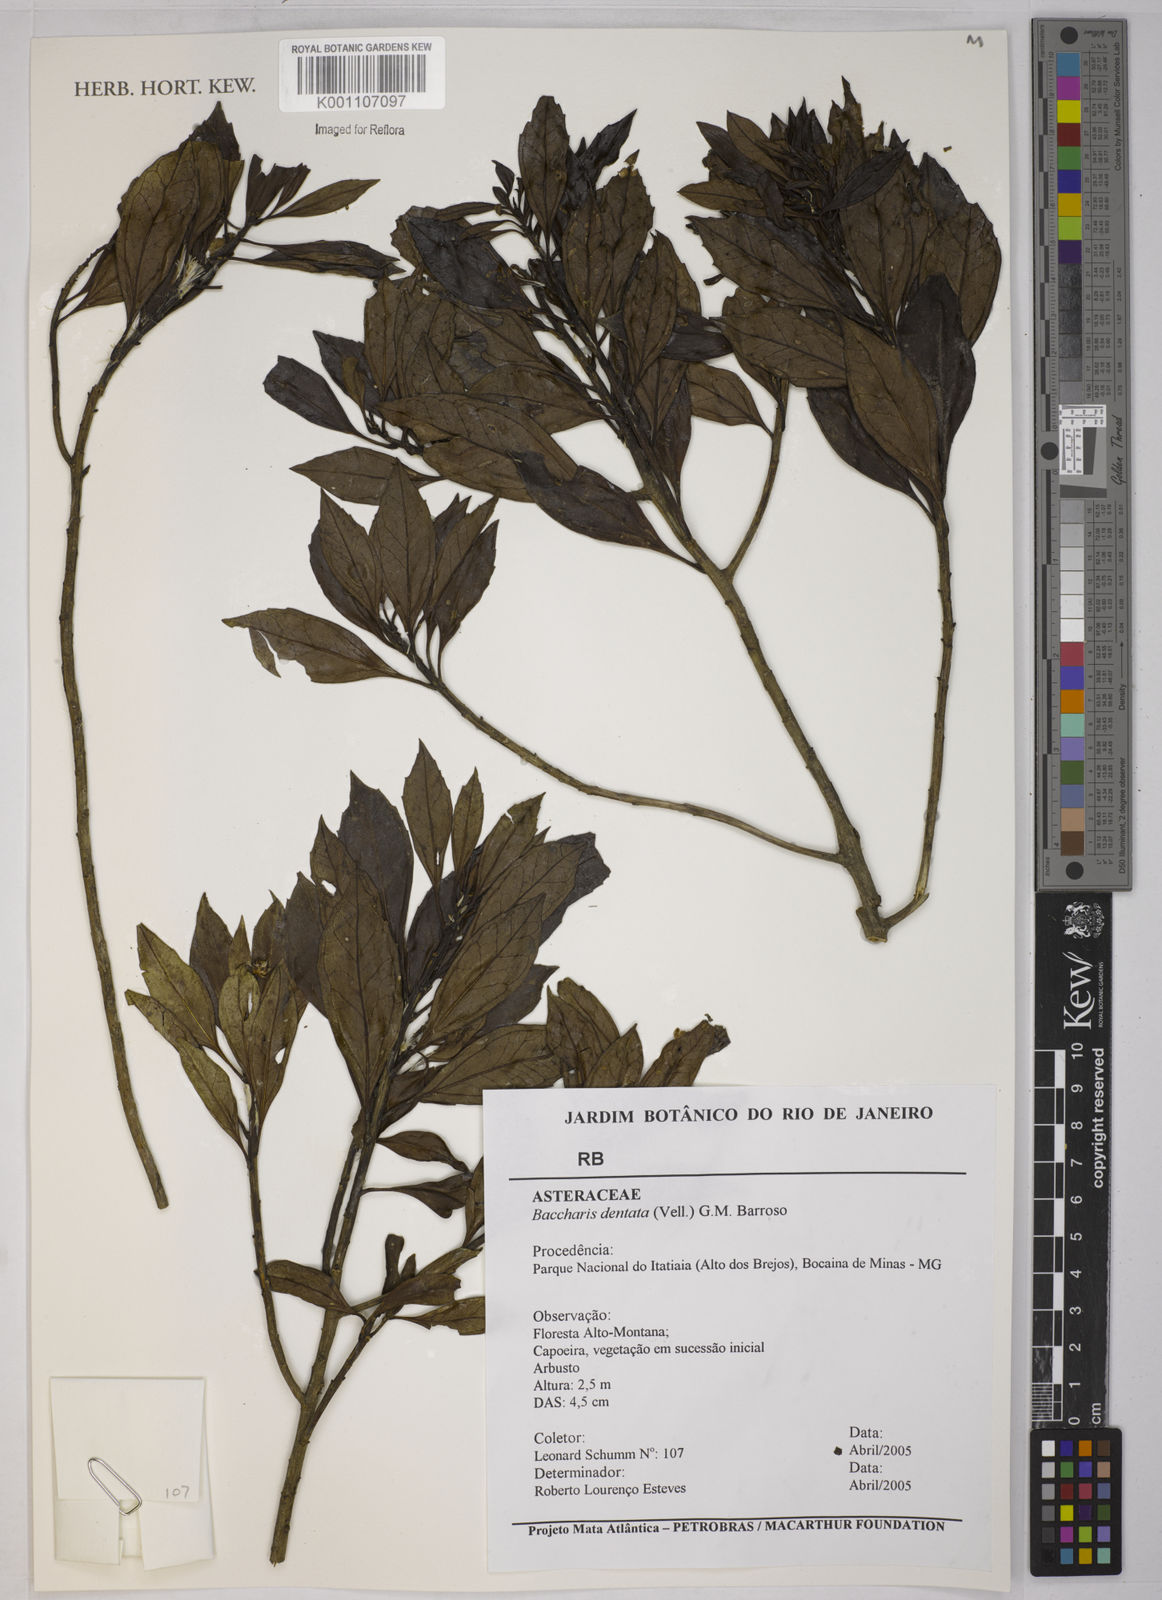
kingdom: Plantae
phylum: Tracheophyta
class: Magnoliopsida
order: Asterales
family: Asteraceae
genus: Baccharis
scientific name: Baccharis dentata
